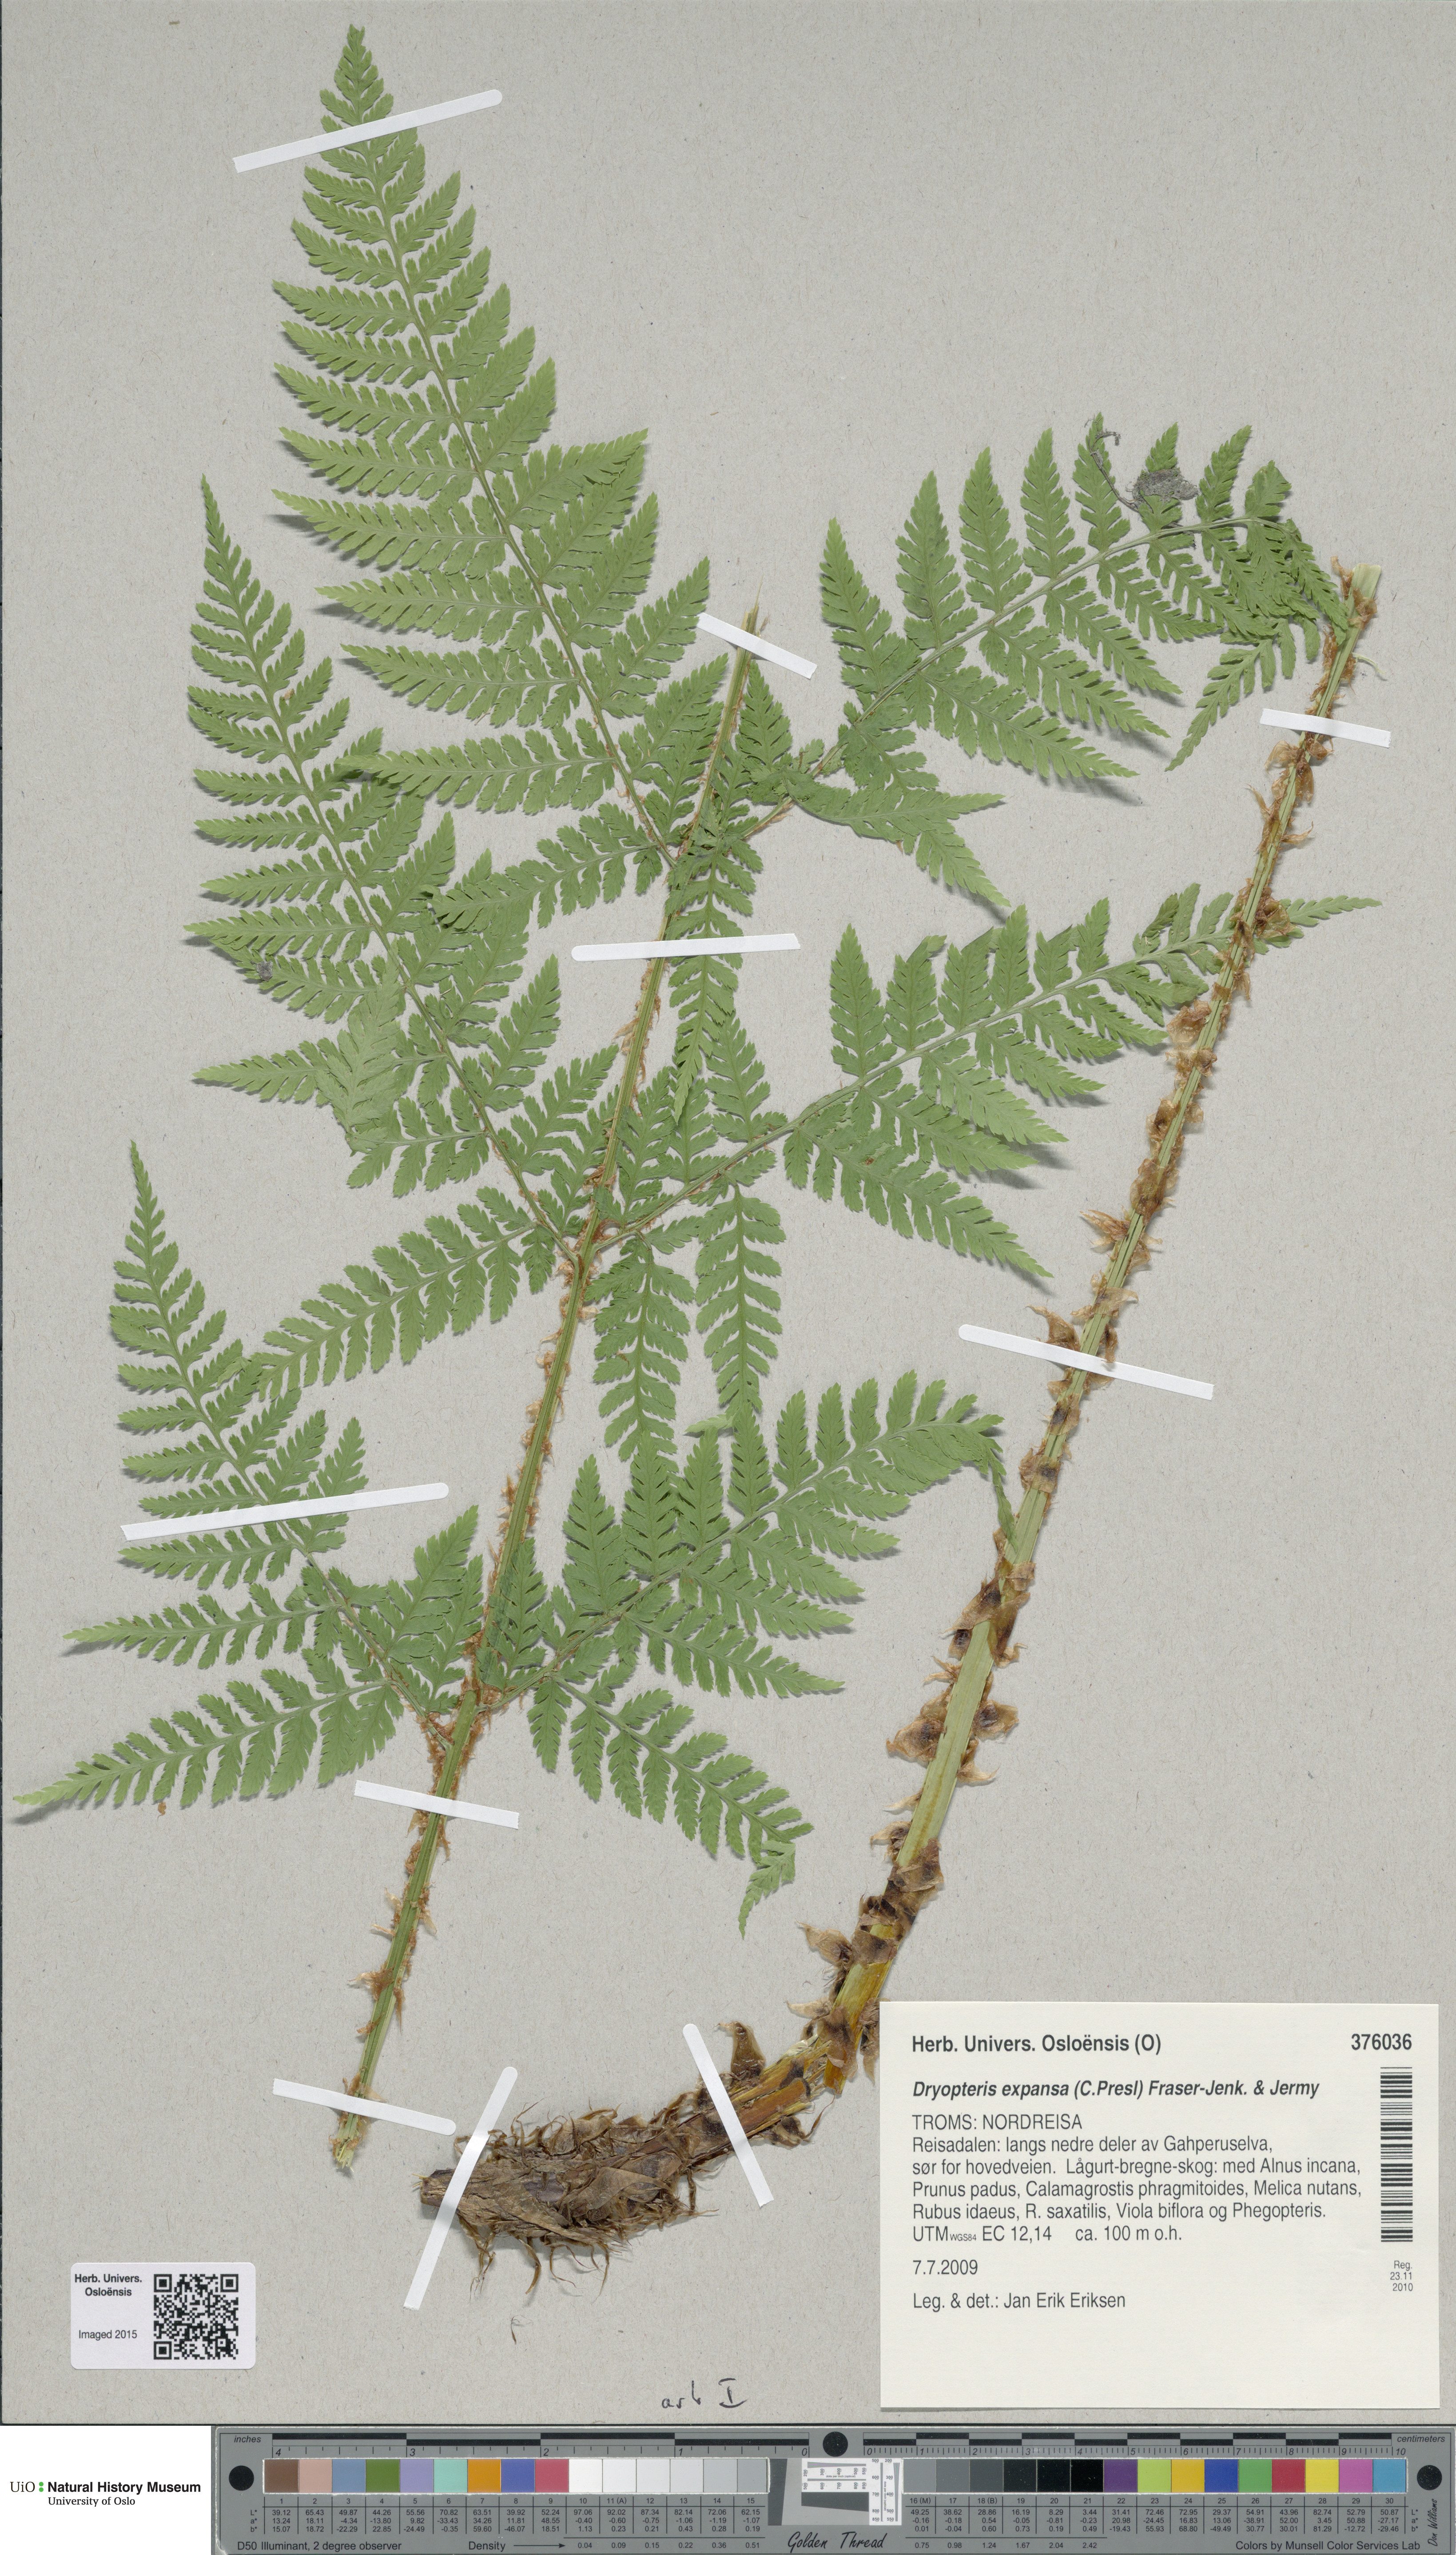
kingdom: Plantae
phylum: Tracheophyta
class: Polypodiopsida
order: Polypodiales
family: Dryopteridaceae
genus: Dryopteris
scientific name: Dryopteris expansa
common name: Northern buckler fern
